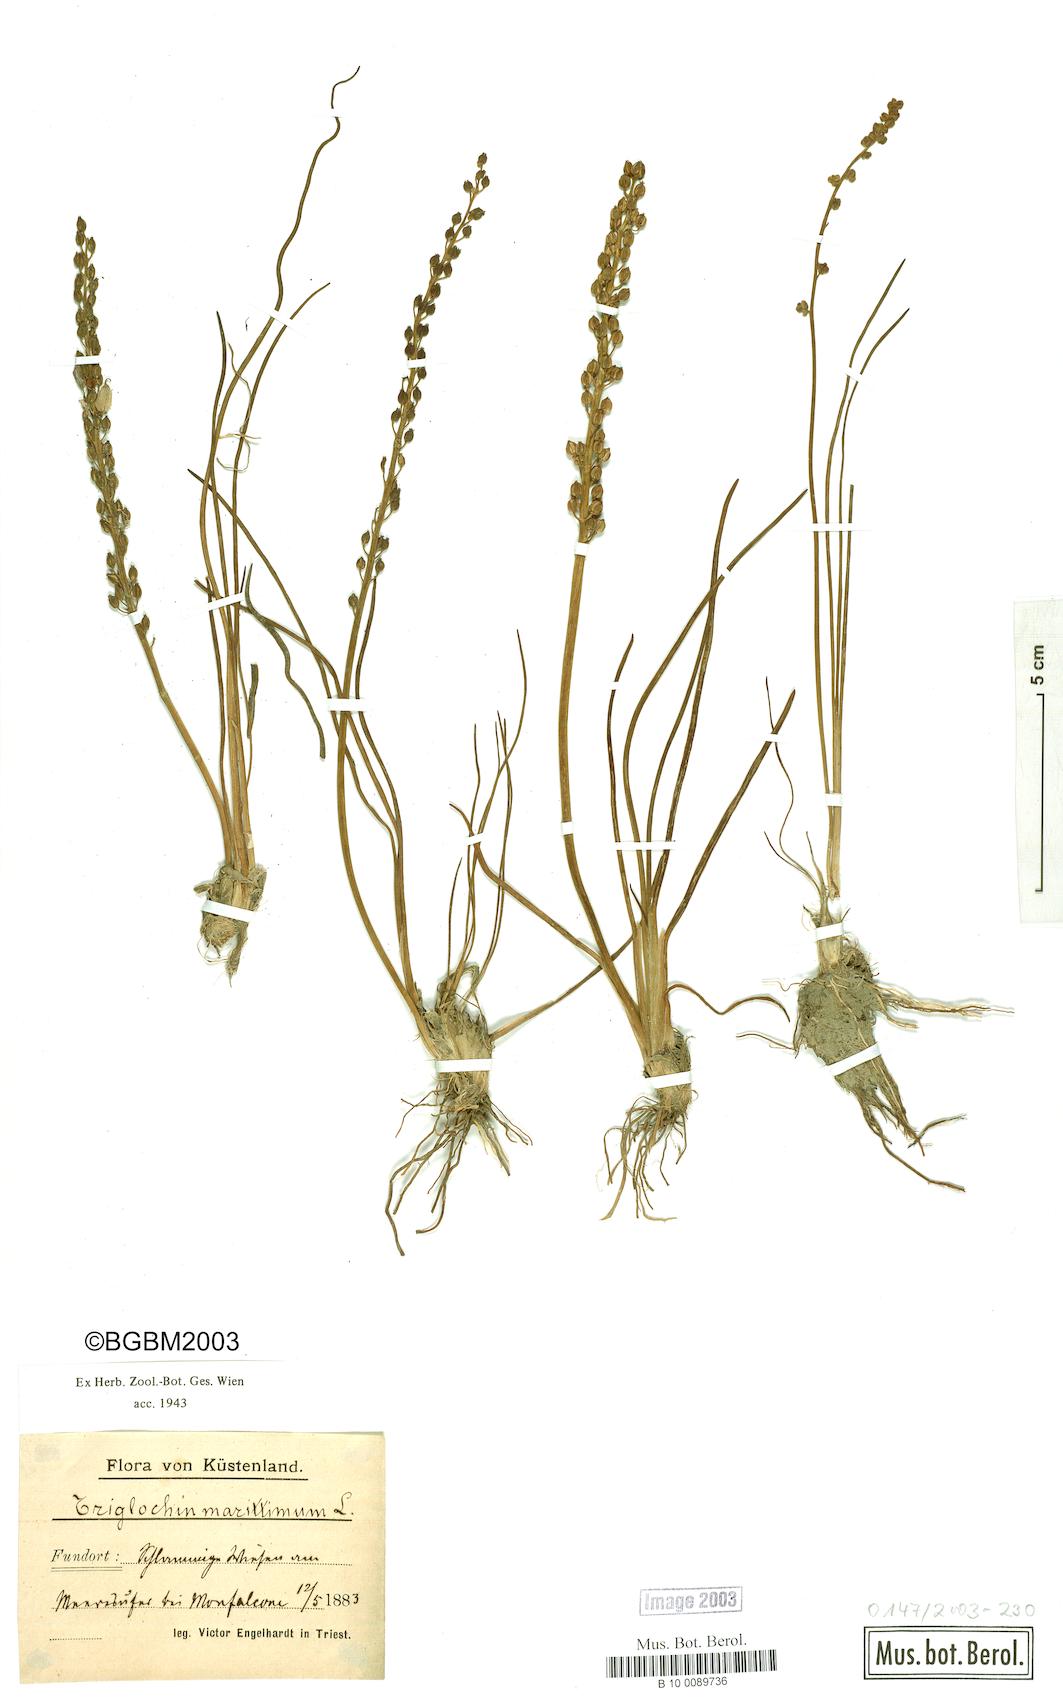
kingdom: Plantae
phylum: Tracheophyta
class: Liliopsida
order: Alismatales
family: Juncaginaceae
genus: Triglochin
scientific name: Triglochin maritima
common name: Sea arrowgrass
